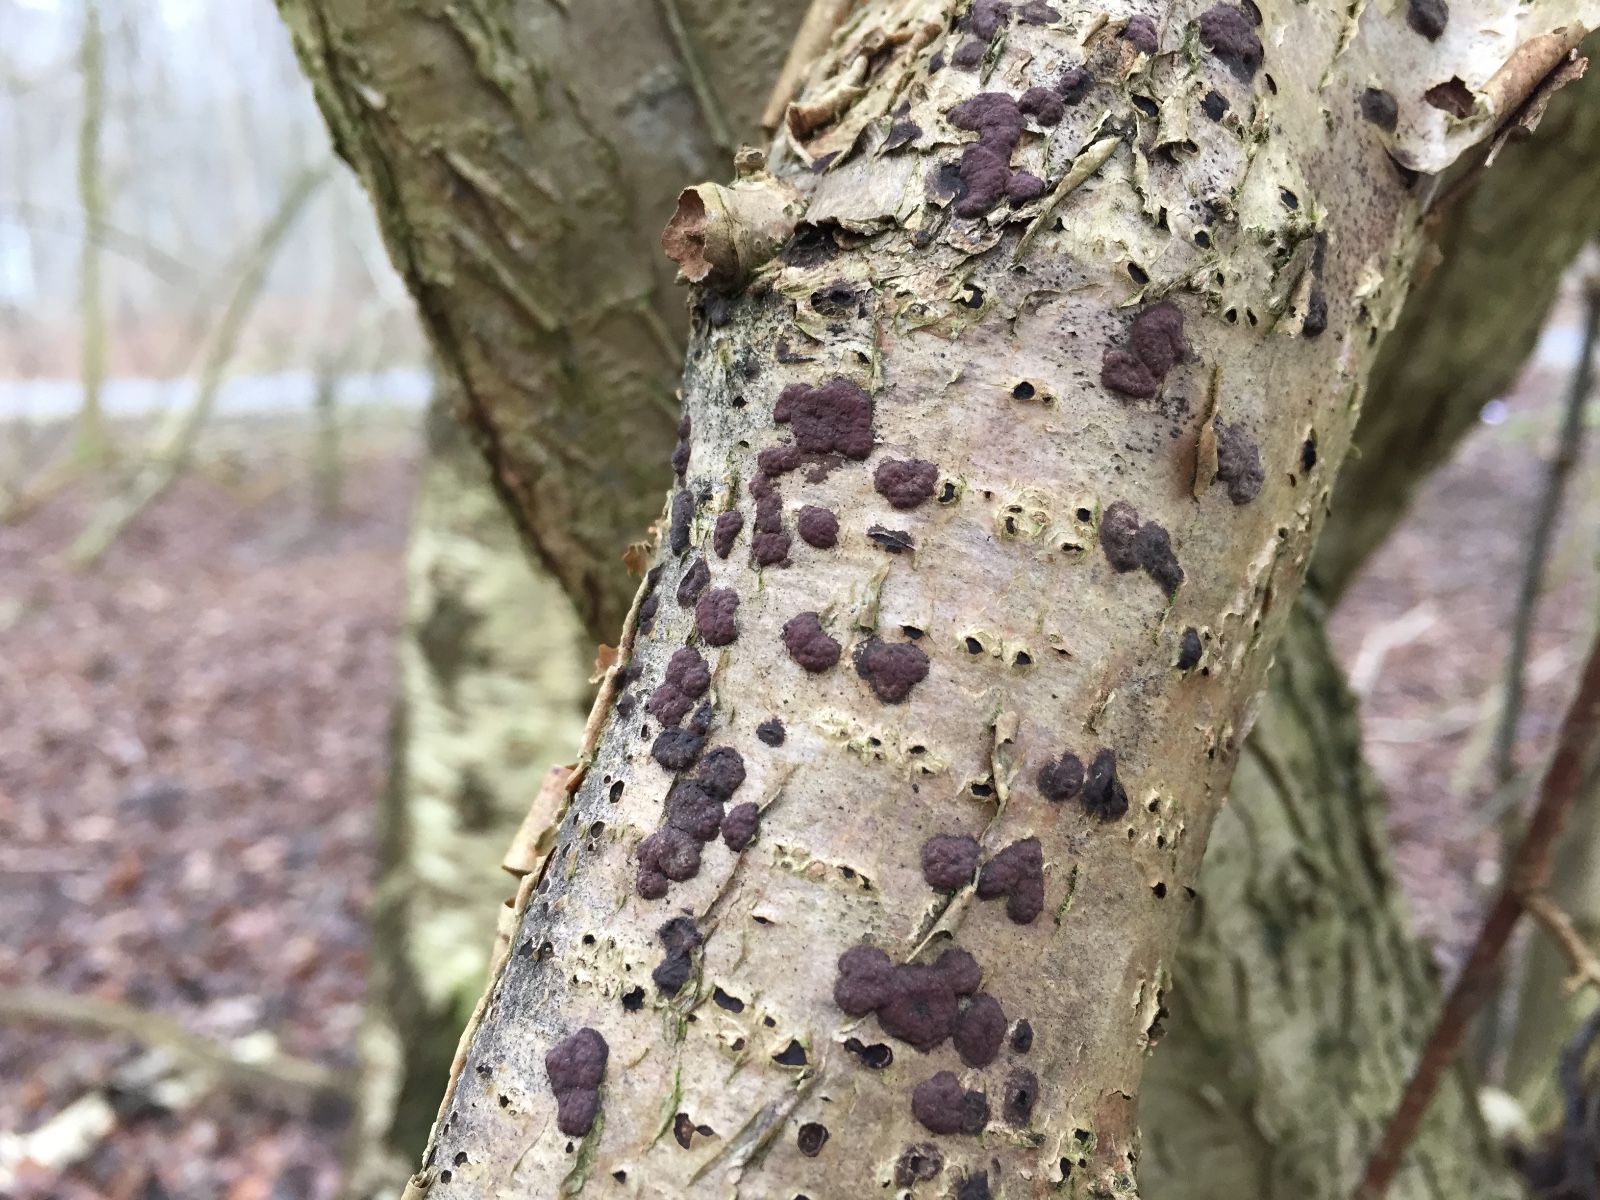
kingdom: Fungi
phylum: Ascomycota
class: Sordariomycetes
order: Xylariales
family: Hypoxylaceae
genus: Hypoxylon
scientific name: Hypoxylon fuscum
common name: kegleformet kulbær
